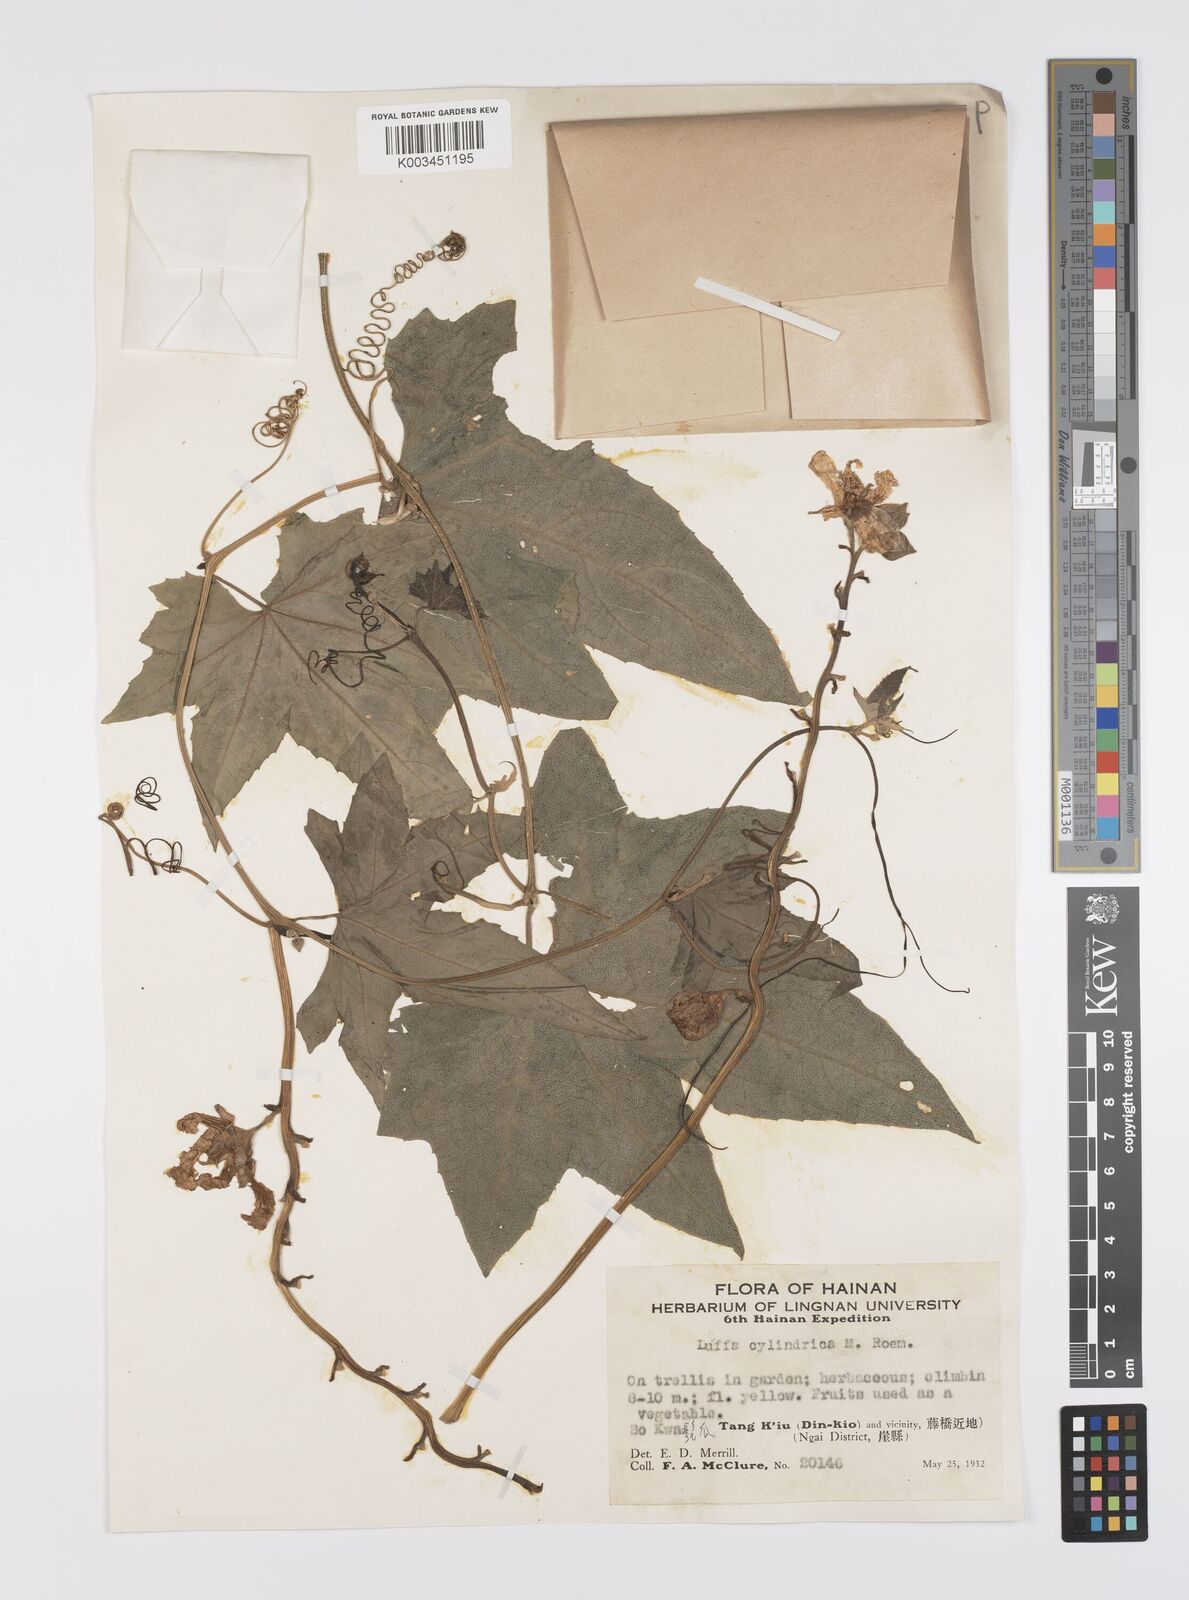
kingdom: Plantae
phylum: Tracheophyta
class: Magnoliopsida
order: Cucurbitales
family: Cucurbitaceae
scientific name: Cucurbitaceae
